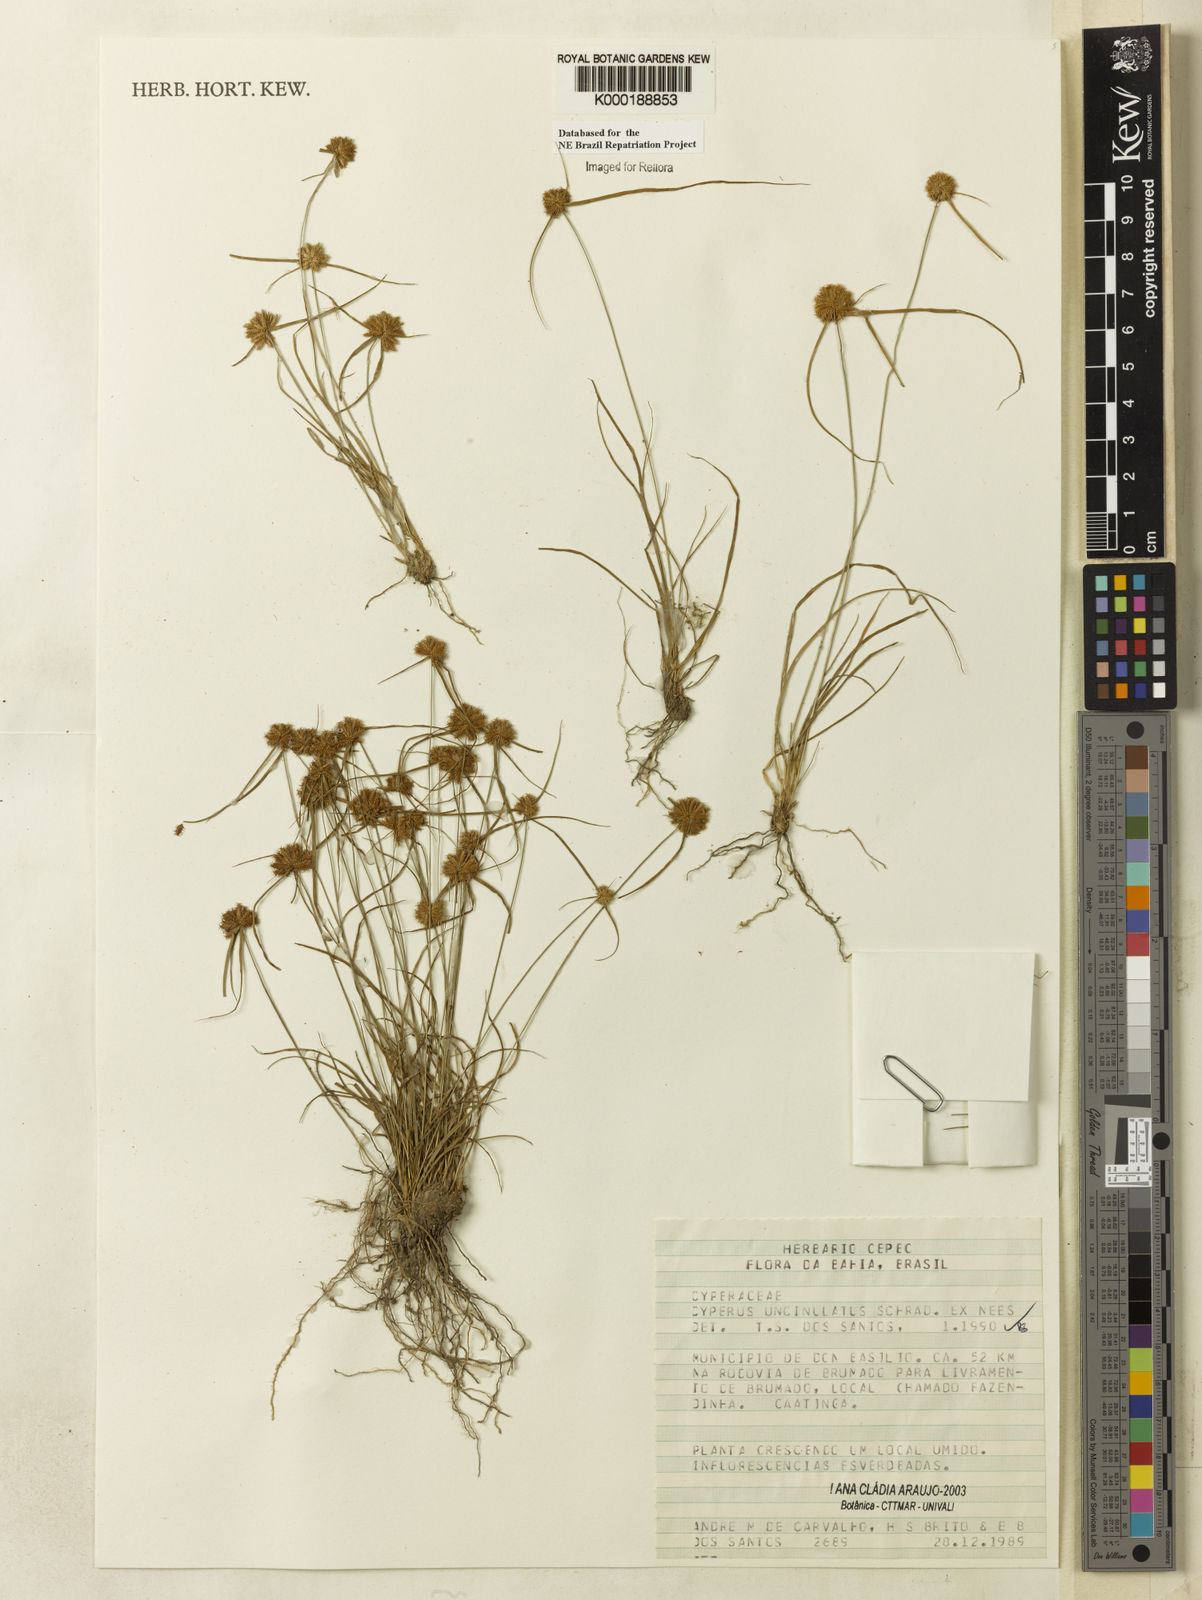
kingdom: Plantae
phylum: Tracheophyta
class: Liliopsida
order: Poales
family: Cyperaceae
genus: Cyperus
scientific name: Cyperus uncinulatus
